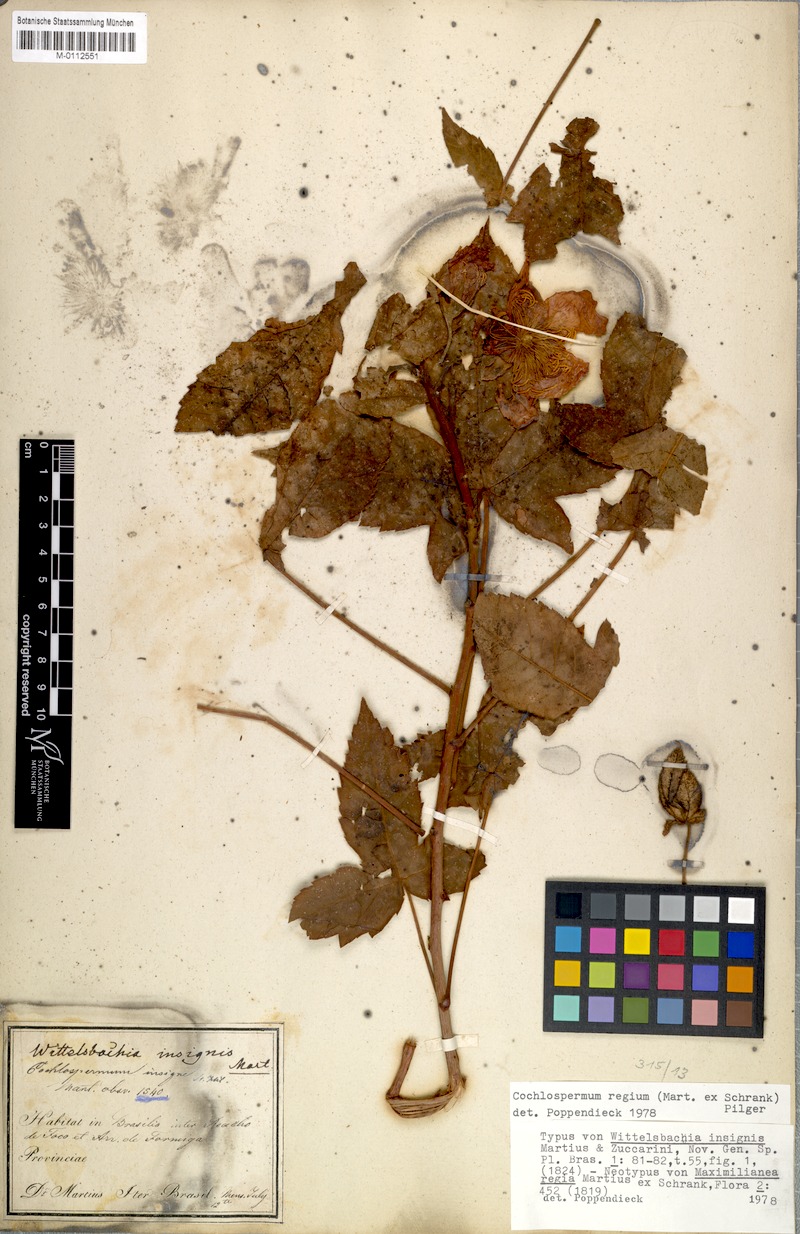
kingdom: Plantae
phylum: Tracheophyta
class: Magnoliopsida
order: Malvales
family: Cochlospermaceae
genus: Cochlospermum
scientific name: Cochlospermum regium
